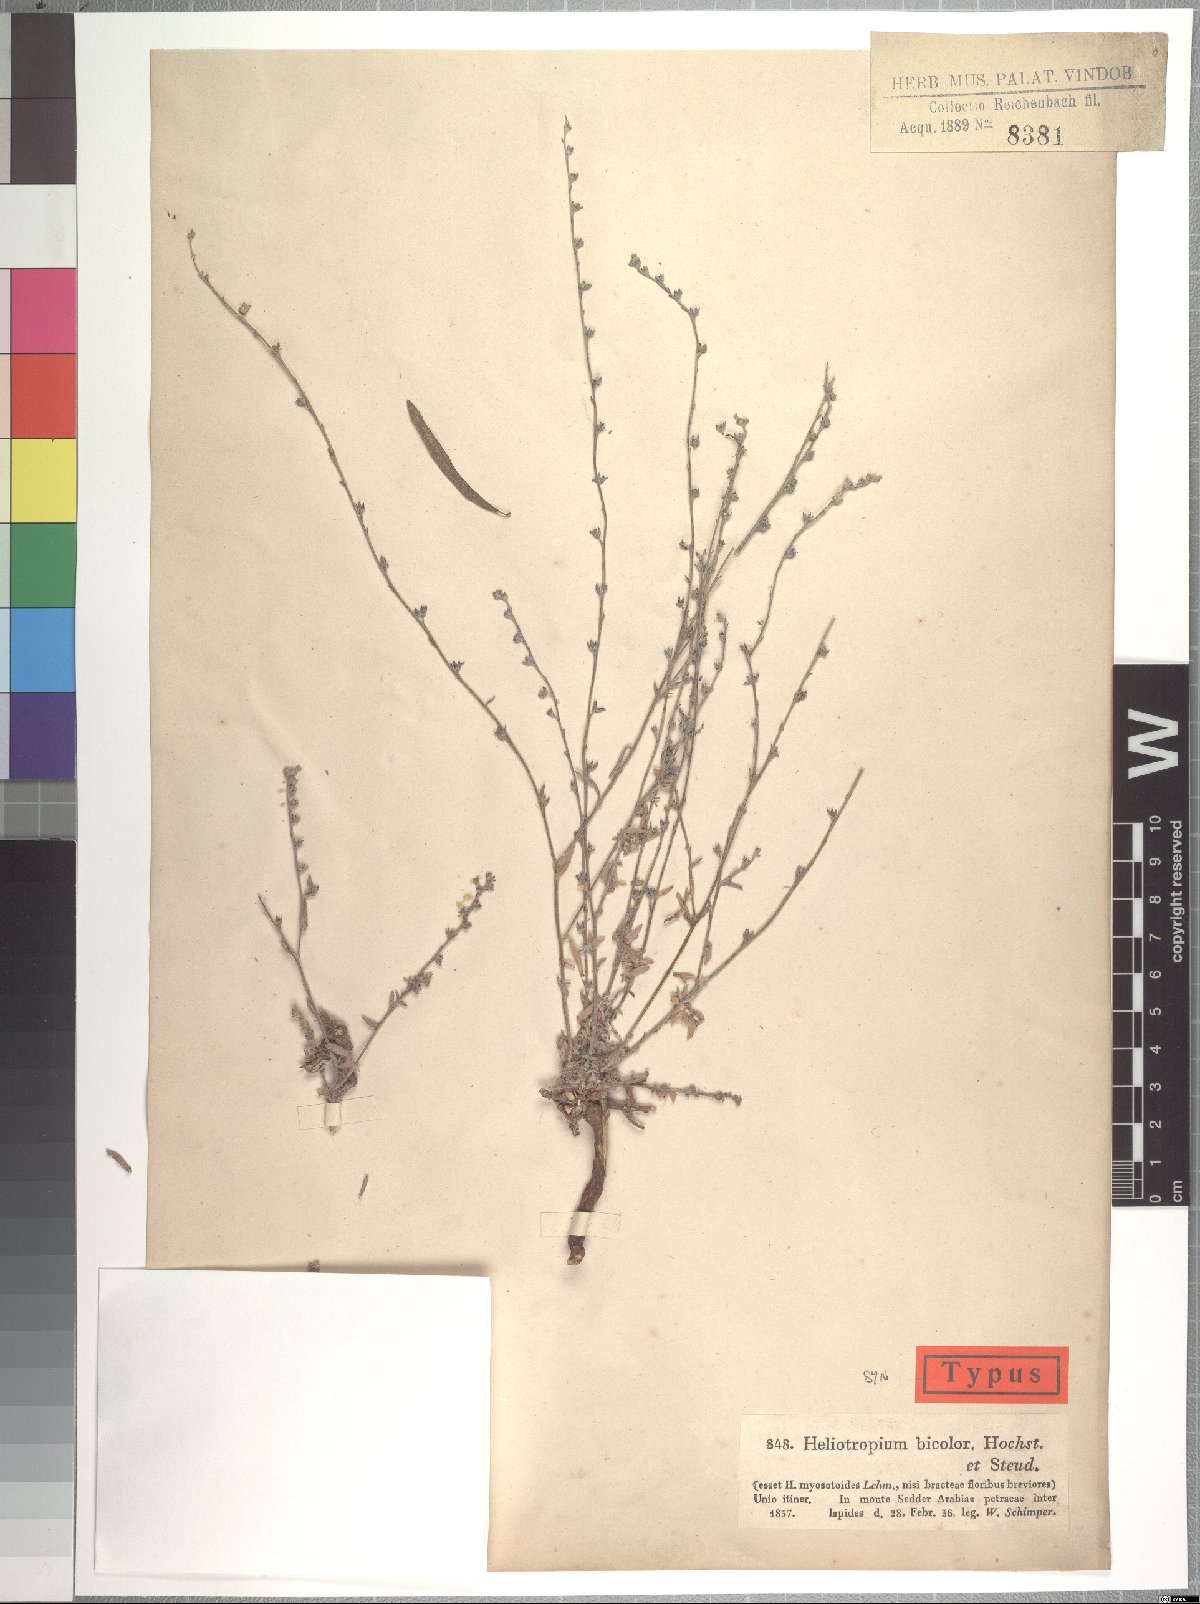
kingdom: Plantae
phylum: Tracheophyta
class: Magnoliopsida
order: Boraginales
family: Heliotropiaceae
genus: Euploca
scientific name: Euploca strigosa
